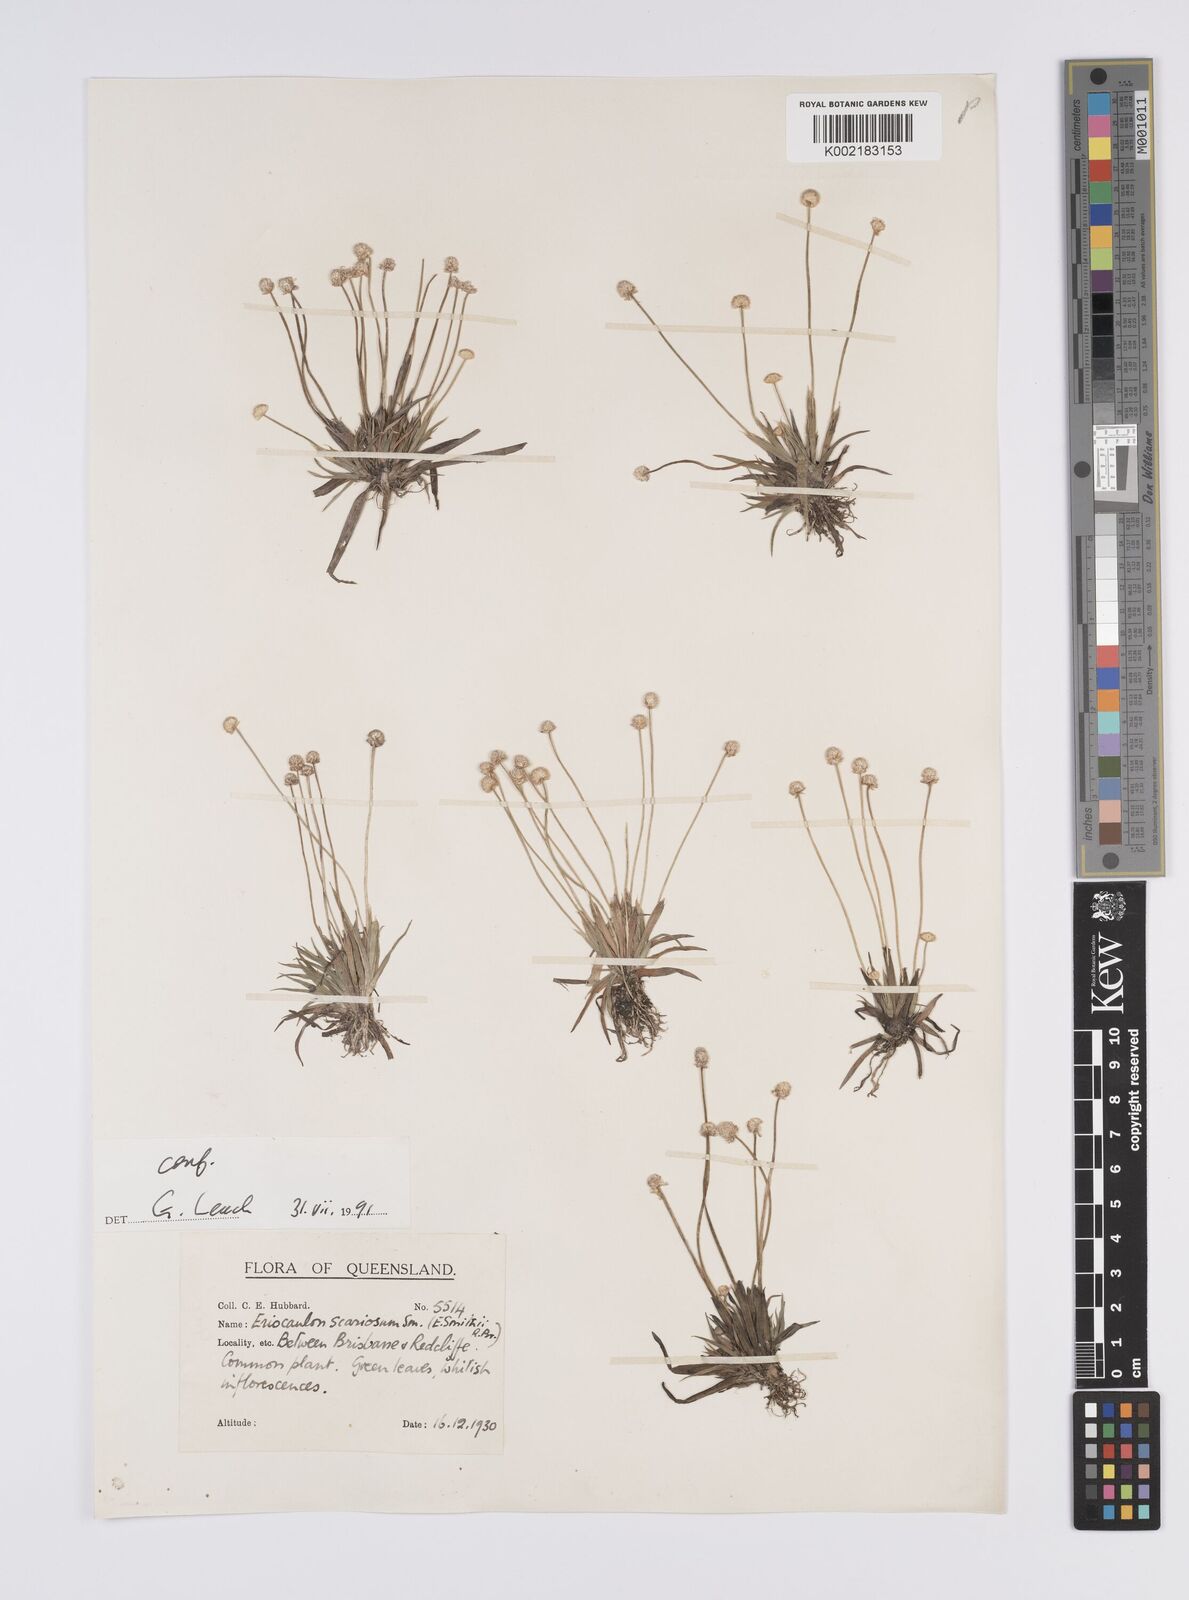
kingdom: Plantae
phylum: Tracheophyta
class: Liliopsida
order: Poales
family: Eriocaulaceae
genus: Eriocaulon
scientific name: Eriocaulon scariosum
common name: Rough pipewort
